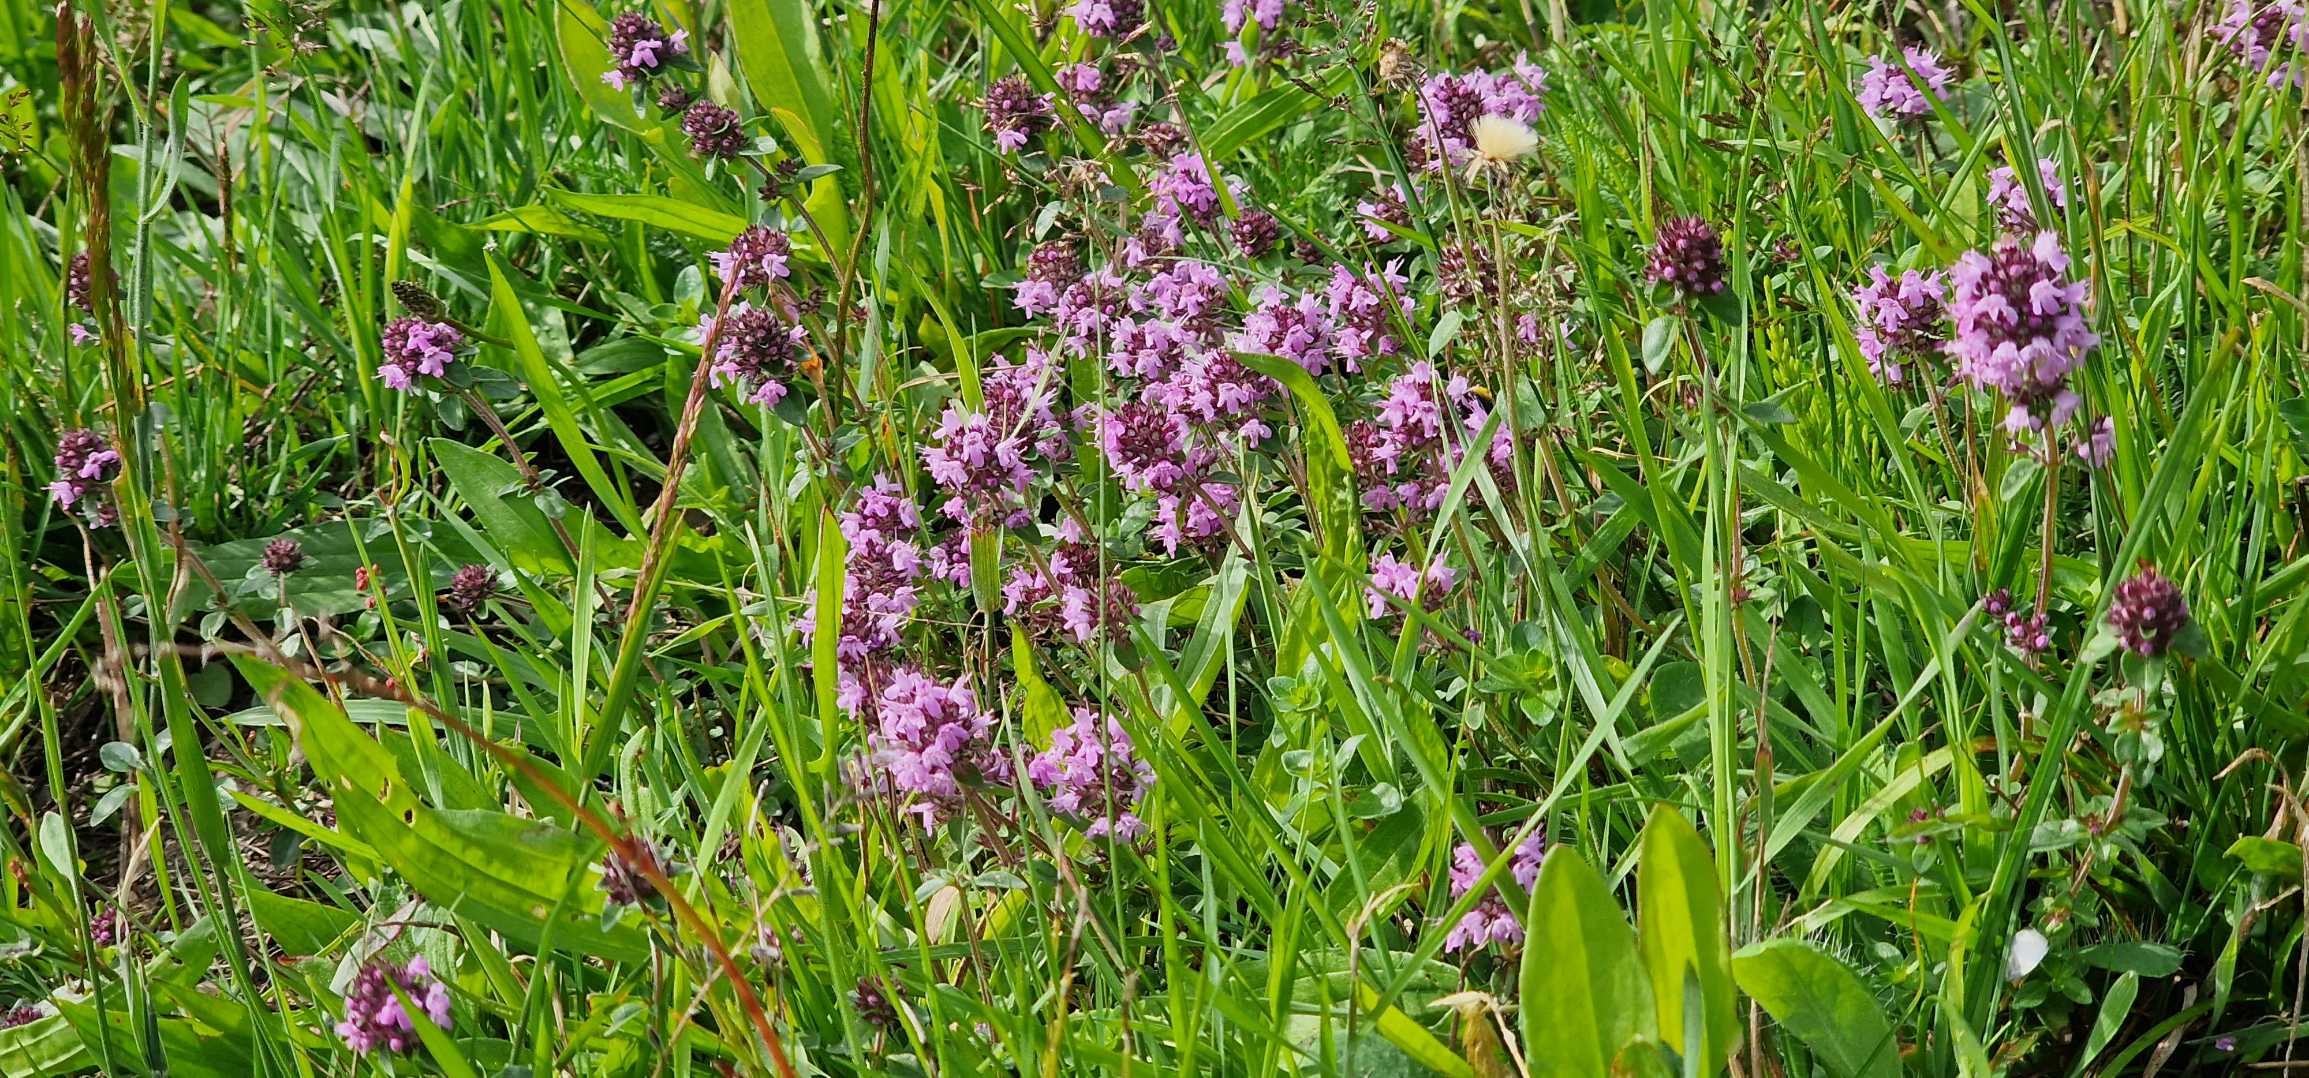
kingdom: Plantae
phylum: Tracheophyta
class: Magnoliopsida
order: Lamiales
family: Lamiaceae
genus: Thymus
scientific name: Thymus pulegioides
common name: Bredbladet timian
